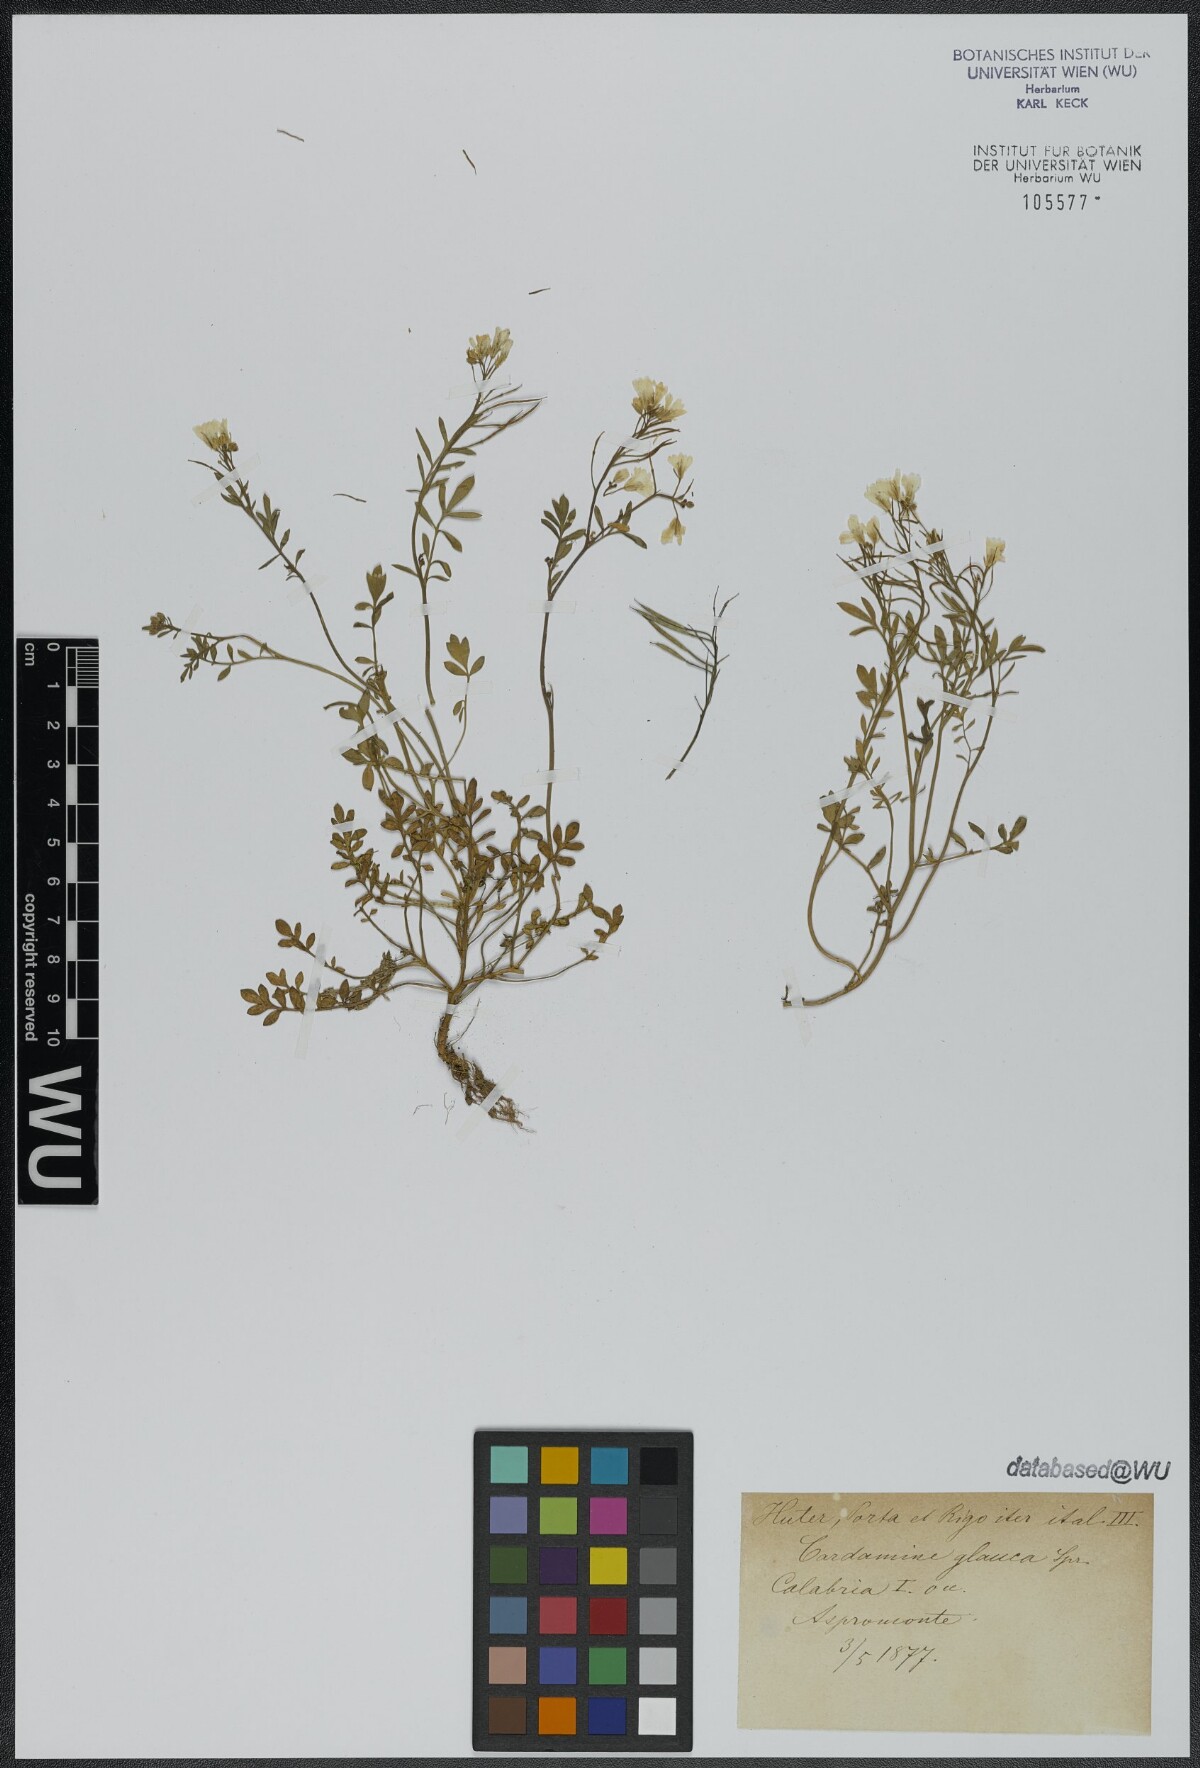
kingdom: Plantae
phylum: Tracheophyta
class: Magnoliopsida
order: Brassicales
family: Brassicaceae
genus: Cardamine
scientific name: Cardamine glauca
